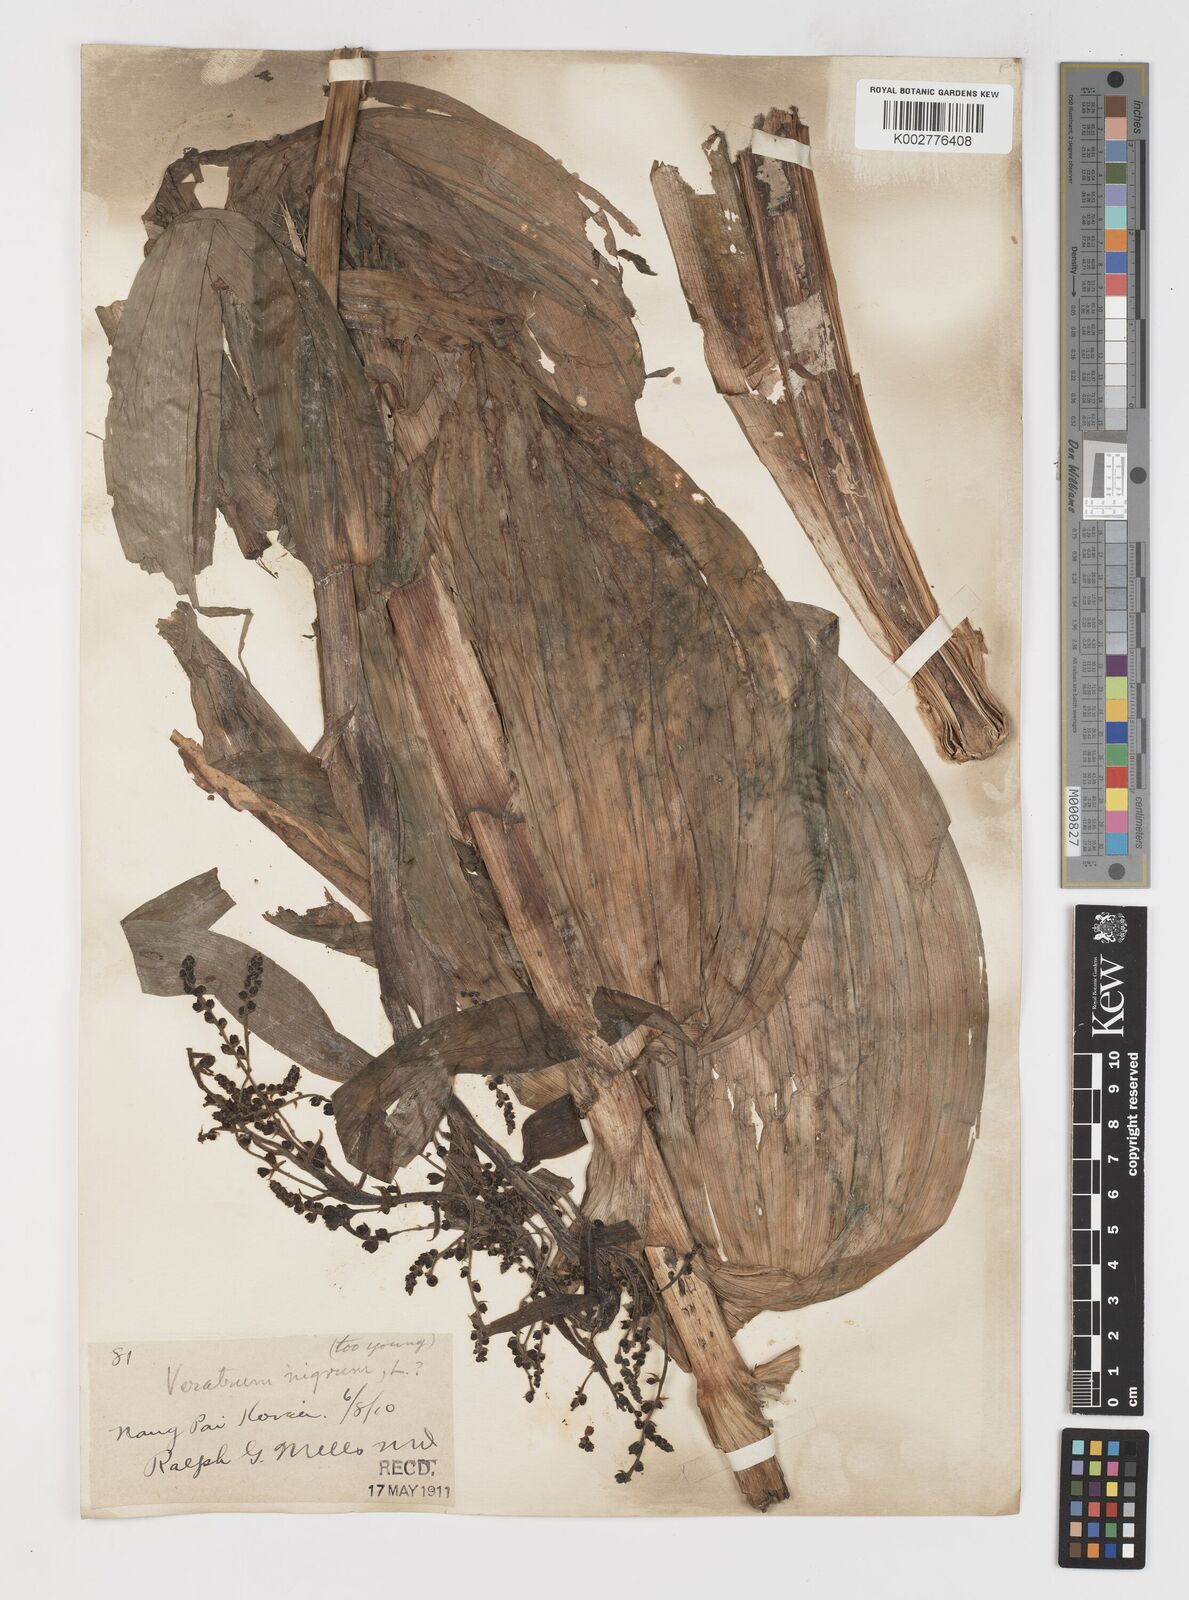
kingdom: Plantae
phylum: Tracheophyta
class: Liliopsida
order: Liliales
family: Melanthiaceae
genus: Veratrum
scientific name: Veratrum nigrum
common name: Black veratrum
